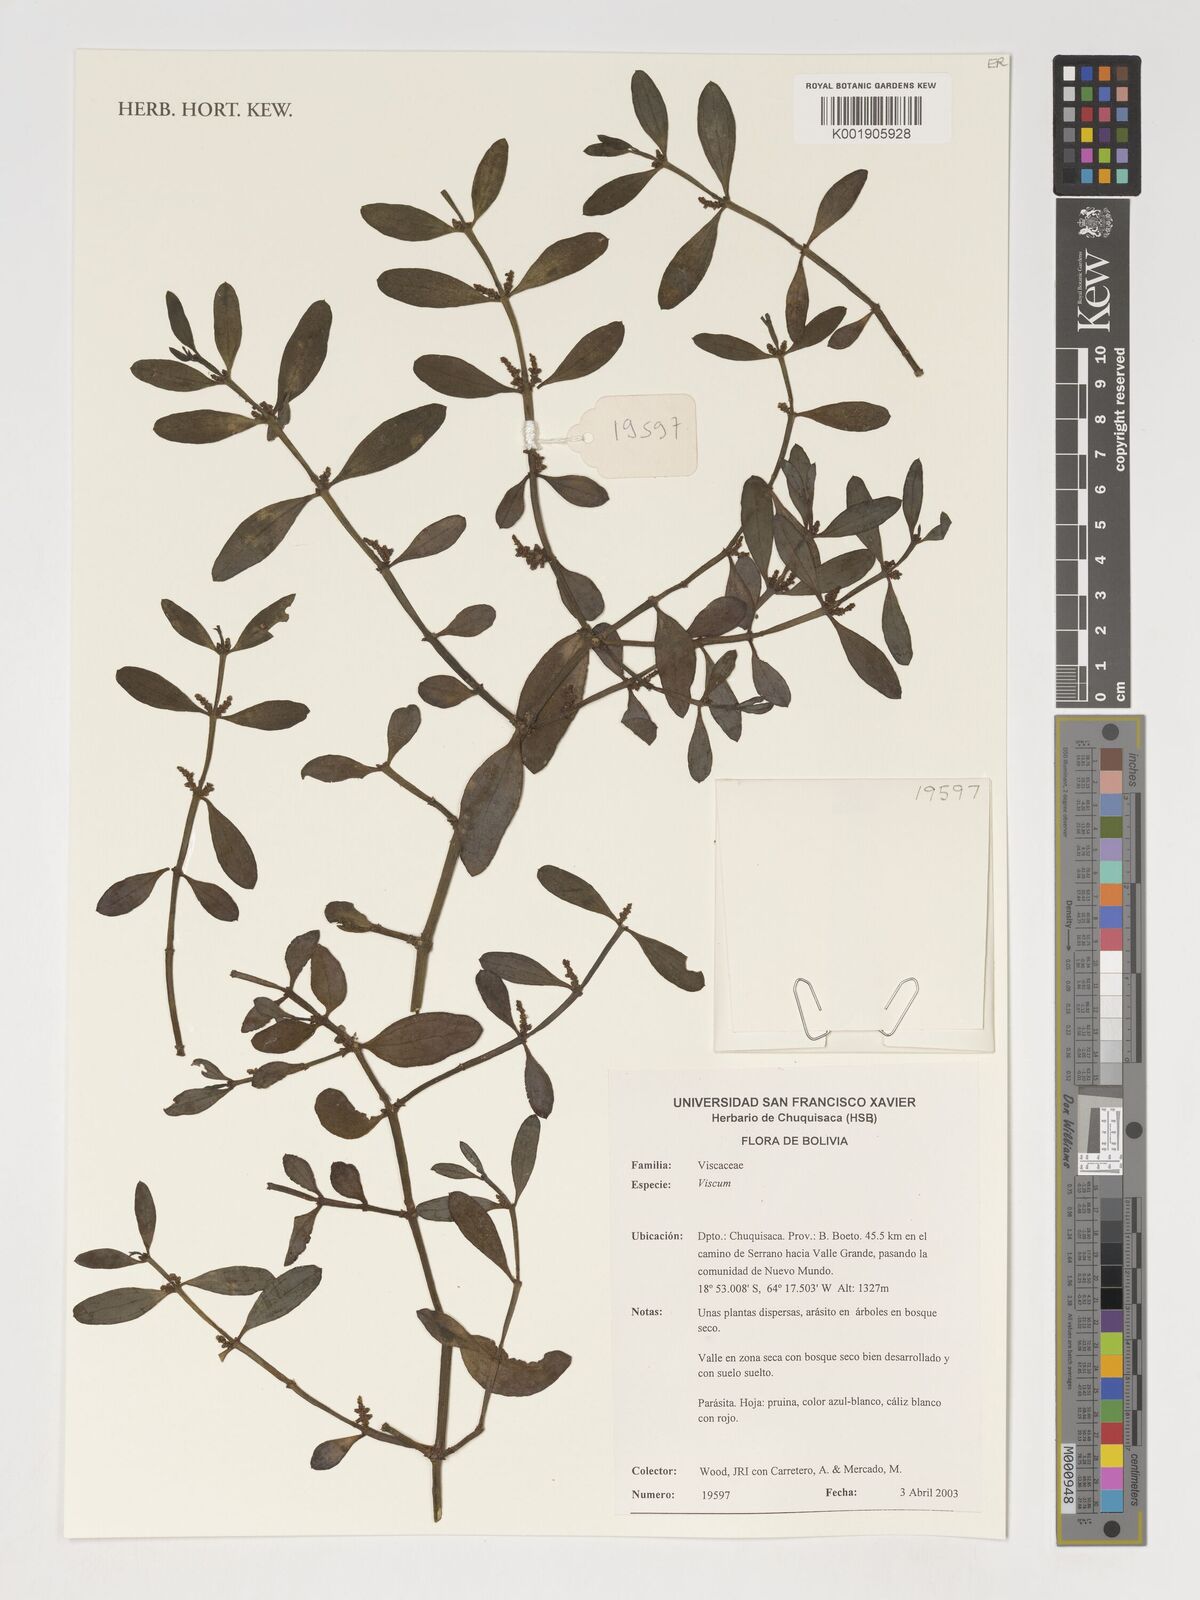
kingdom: Plantae
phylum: Tracheophyta
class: Magnoliopsida
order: Santalales
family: Viscaceae
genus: Viscum
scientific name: Viscum
